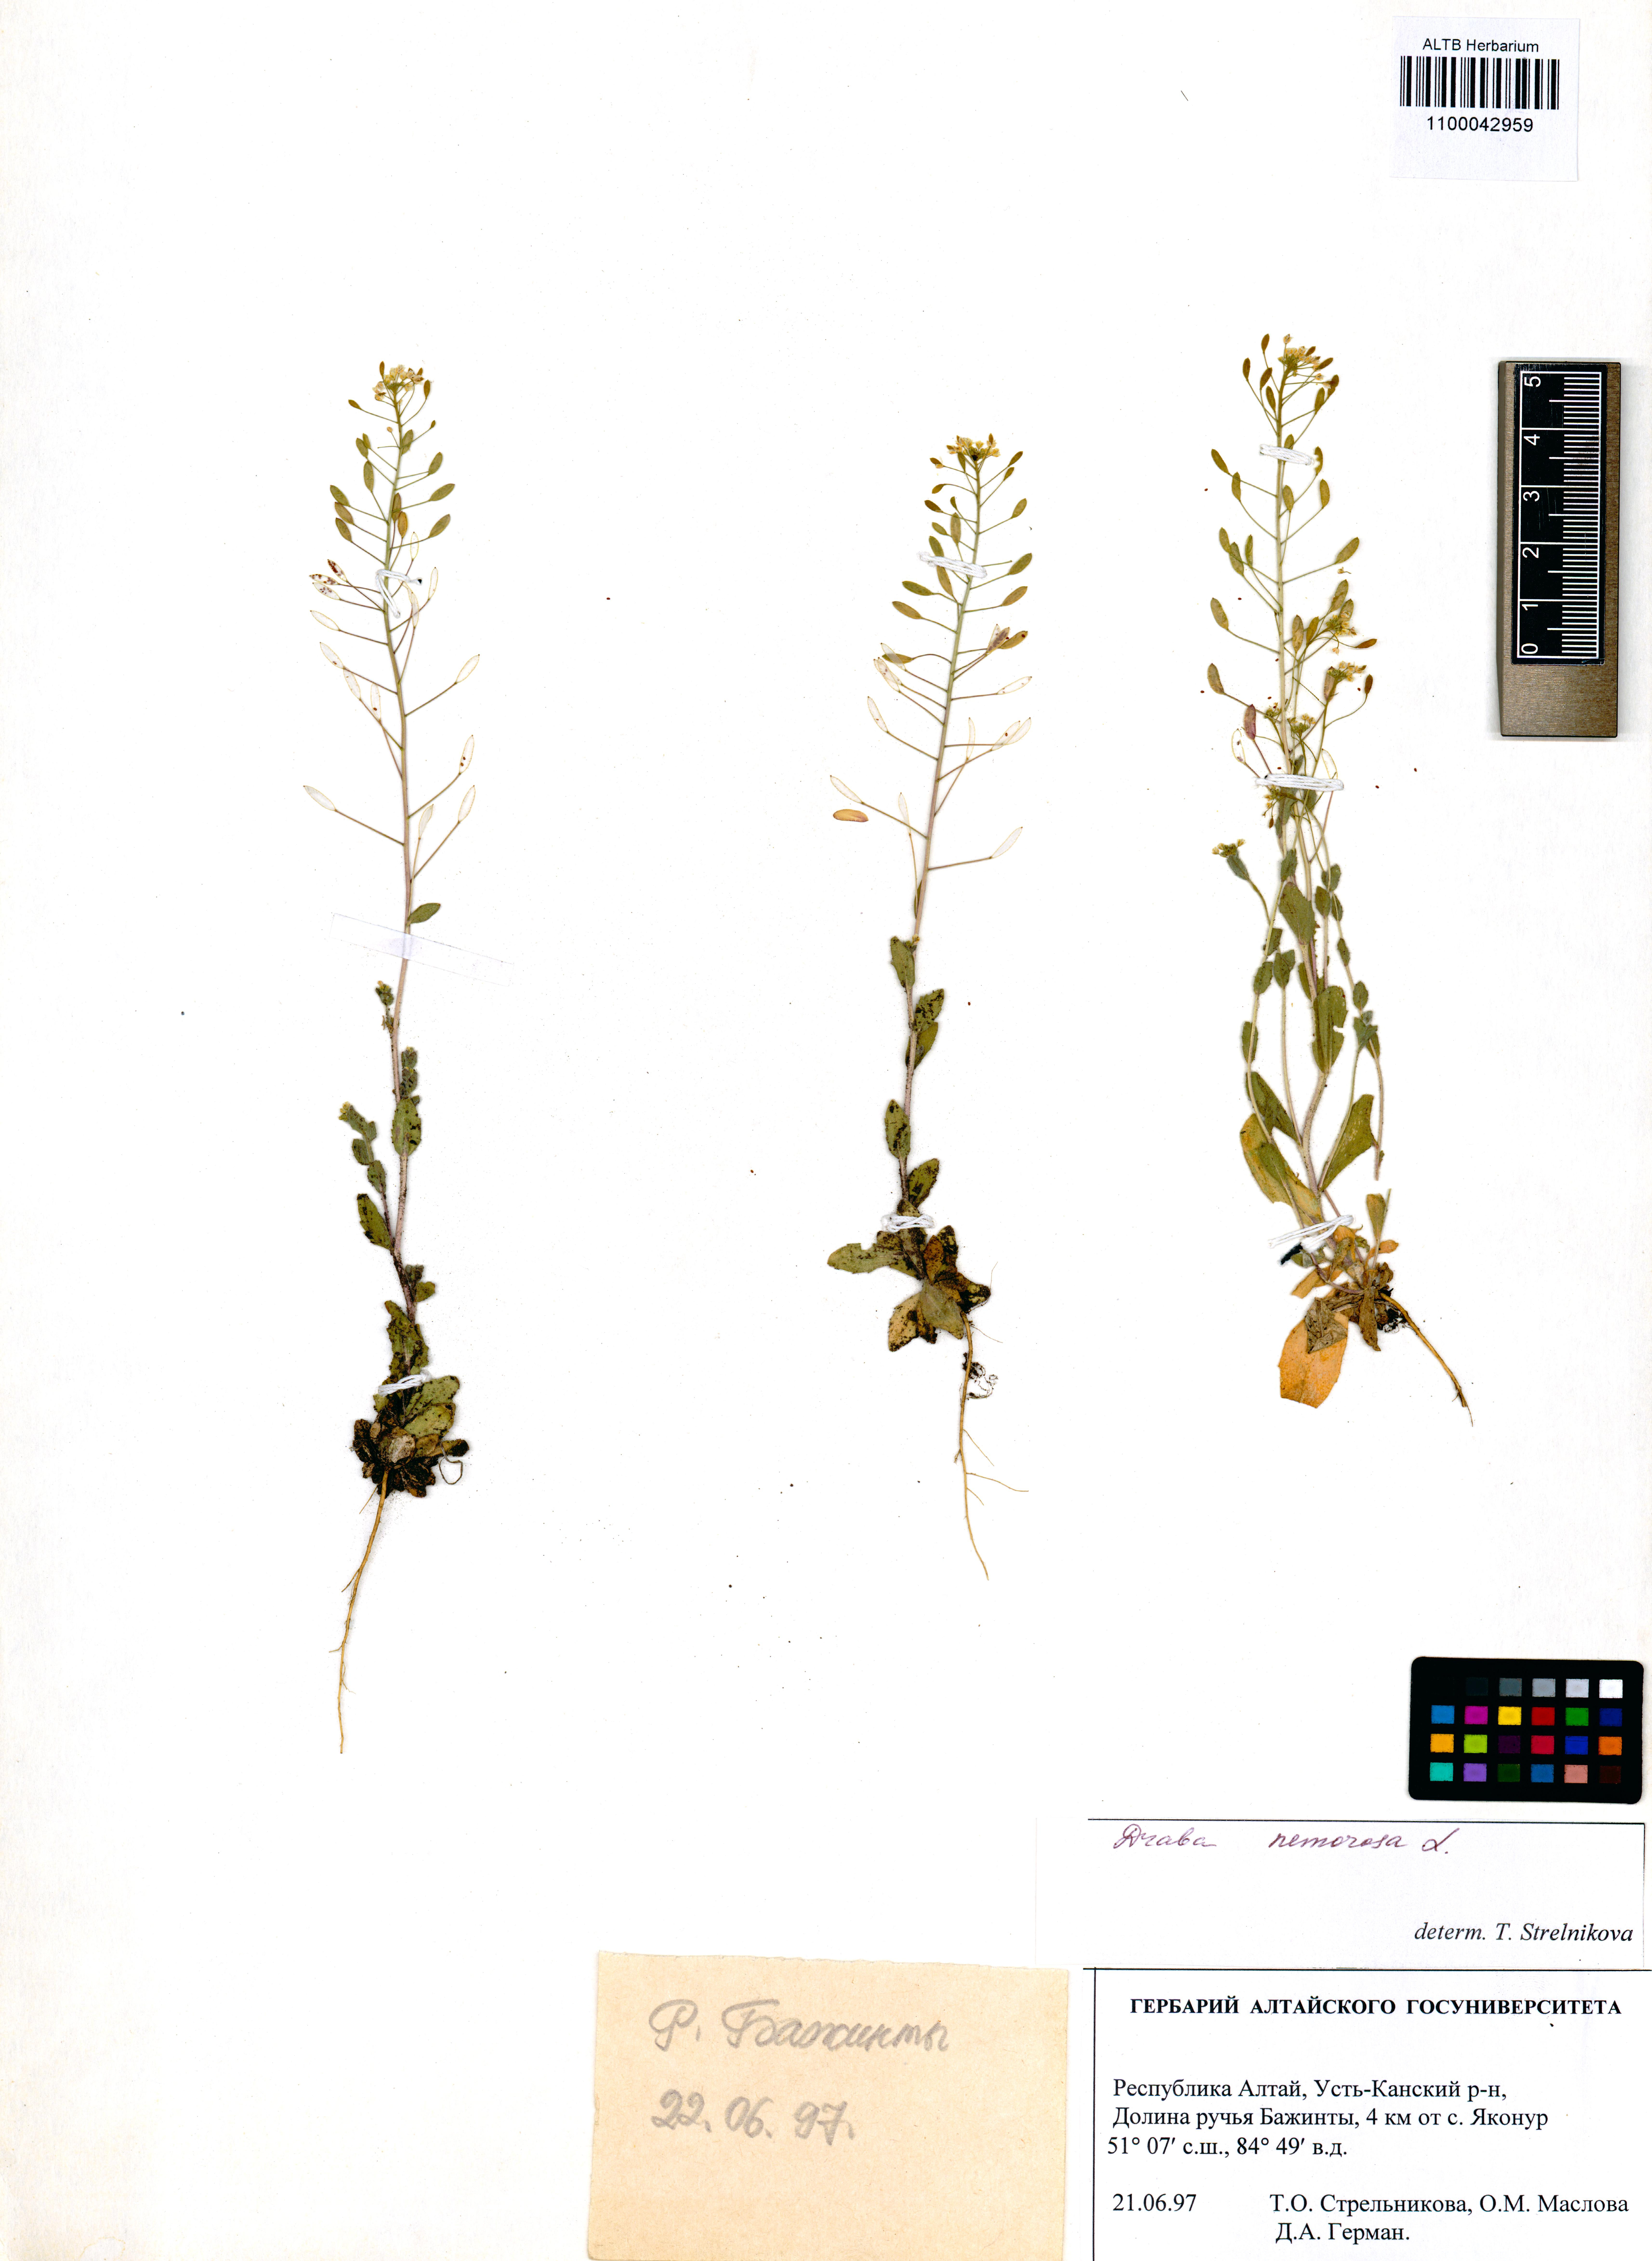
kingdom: Plantae
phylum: Tracheophyta
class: Magnoliopsida
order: Brassicales
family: Brassicaceae
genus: Draba
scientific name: Draba nemorosa
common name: Wood whitlow-grass
